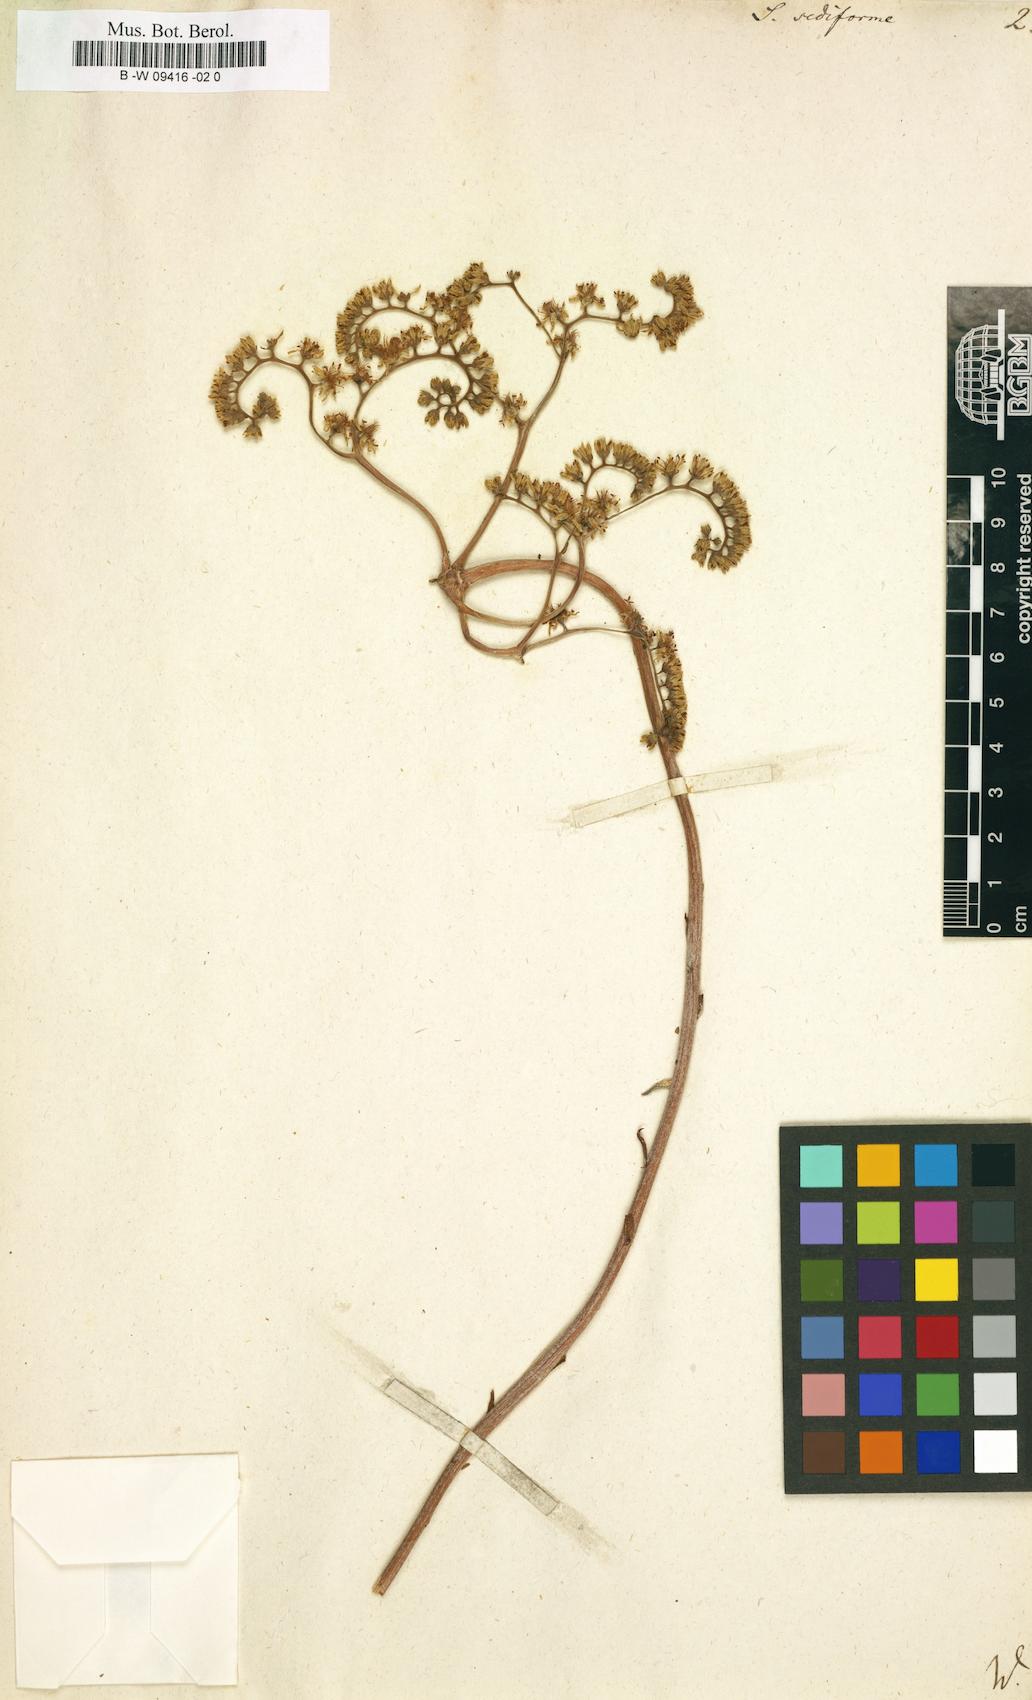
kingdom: Plantae
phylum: Tracheophyta
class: Magnoliopsida
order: Saxifragales
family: Crassulaceae
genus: Petrosedum
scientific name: Petrosedum sediforme
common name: Pale stonecrop
